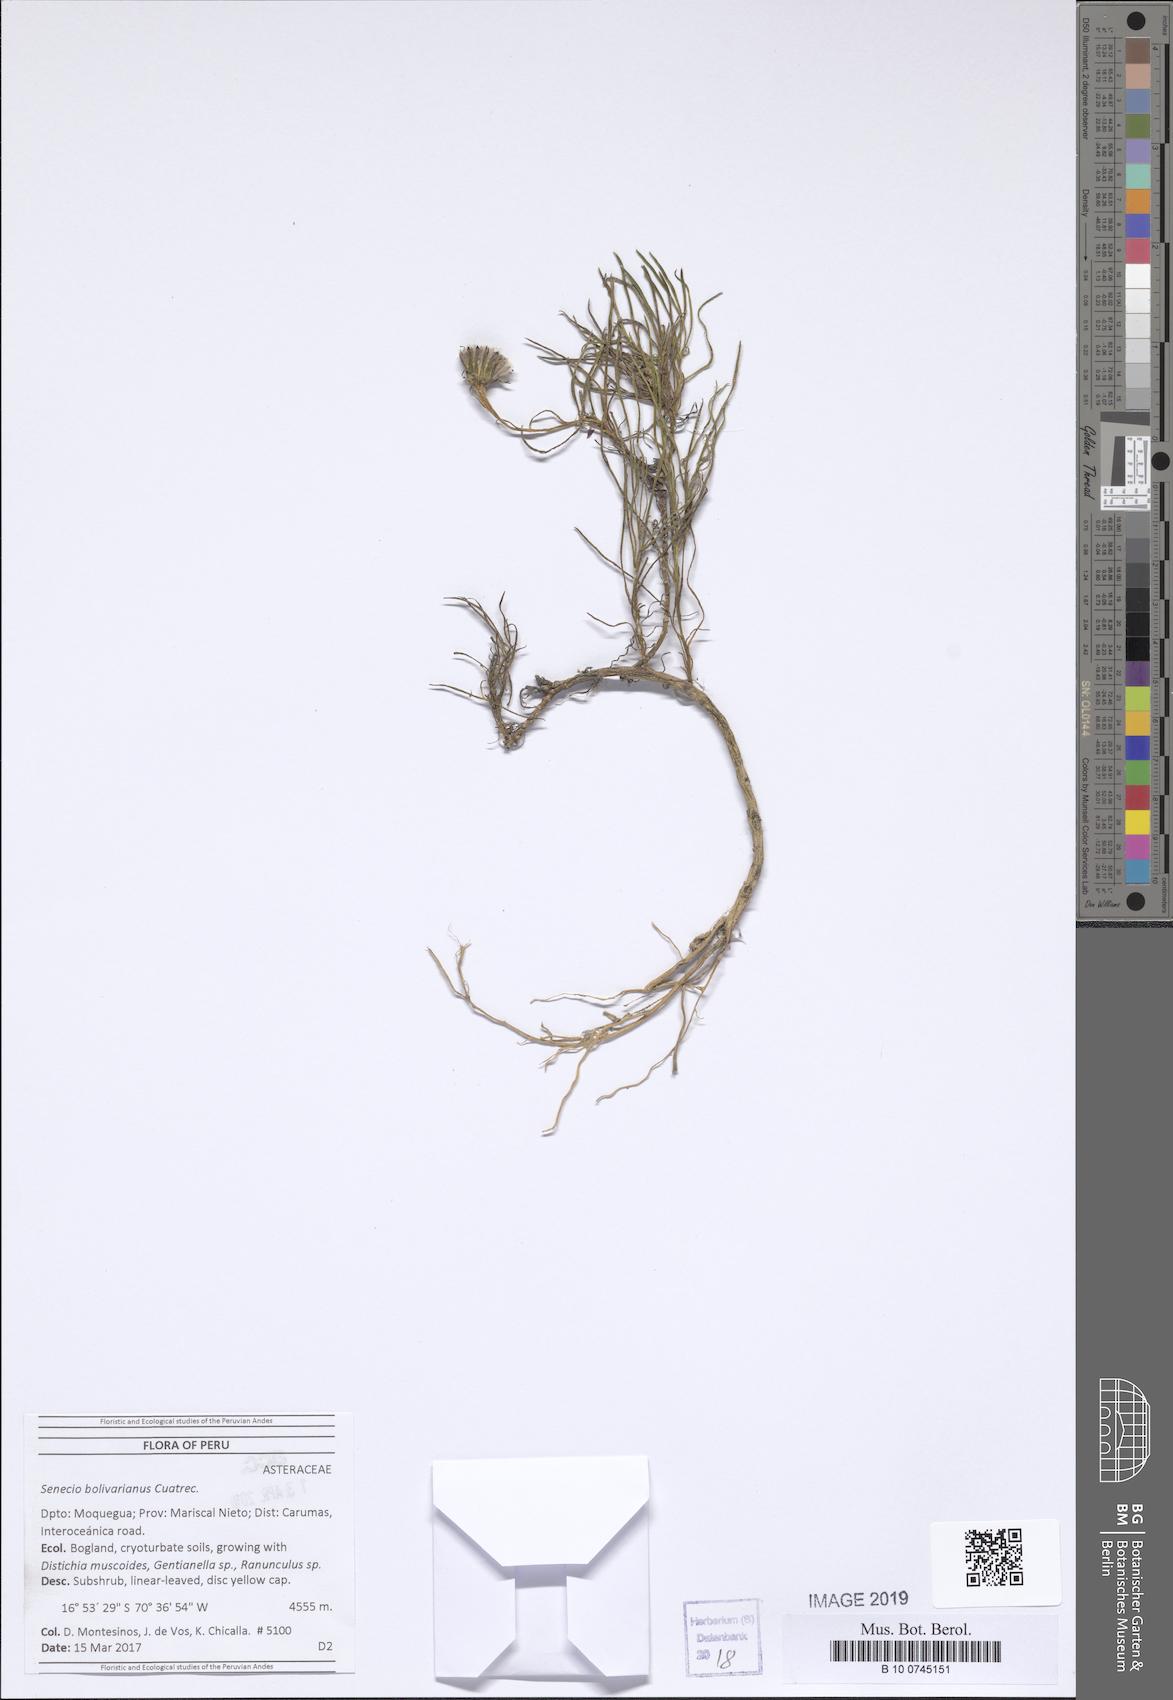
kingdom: Plantae
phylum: Tracheophyta
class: Magnoliopsida
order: Asterales
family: Asteraceae
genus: Senecio
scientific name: Senecio scorzonerifolius
